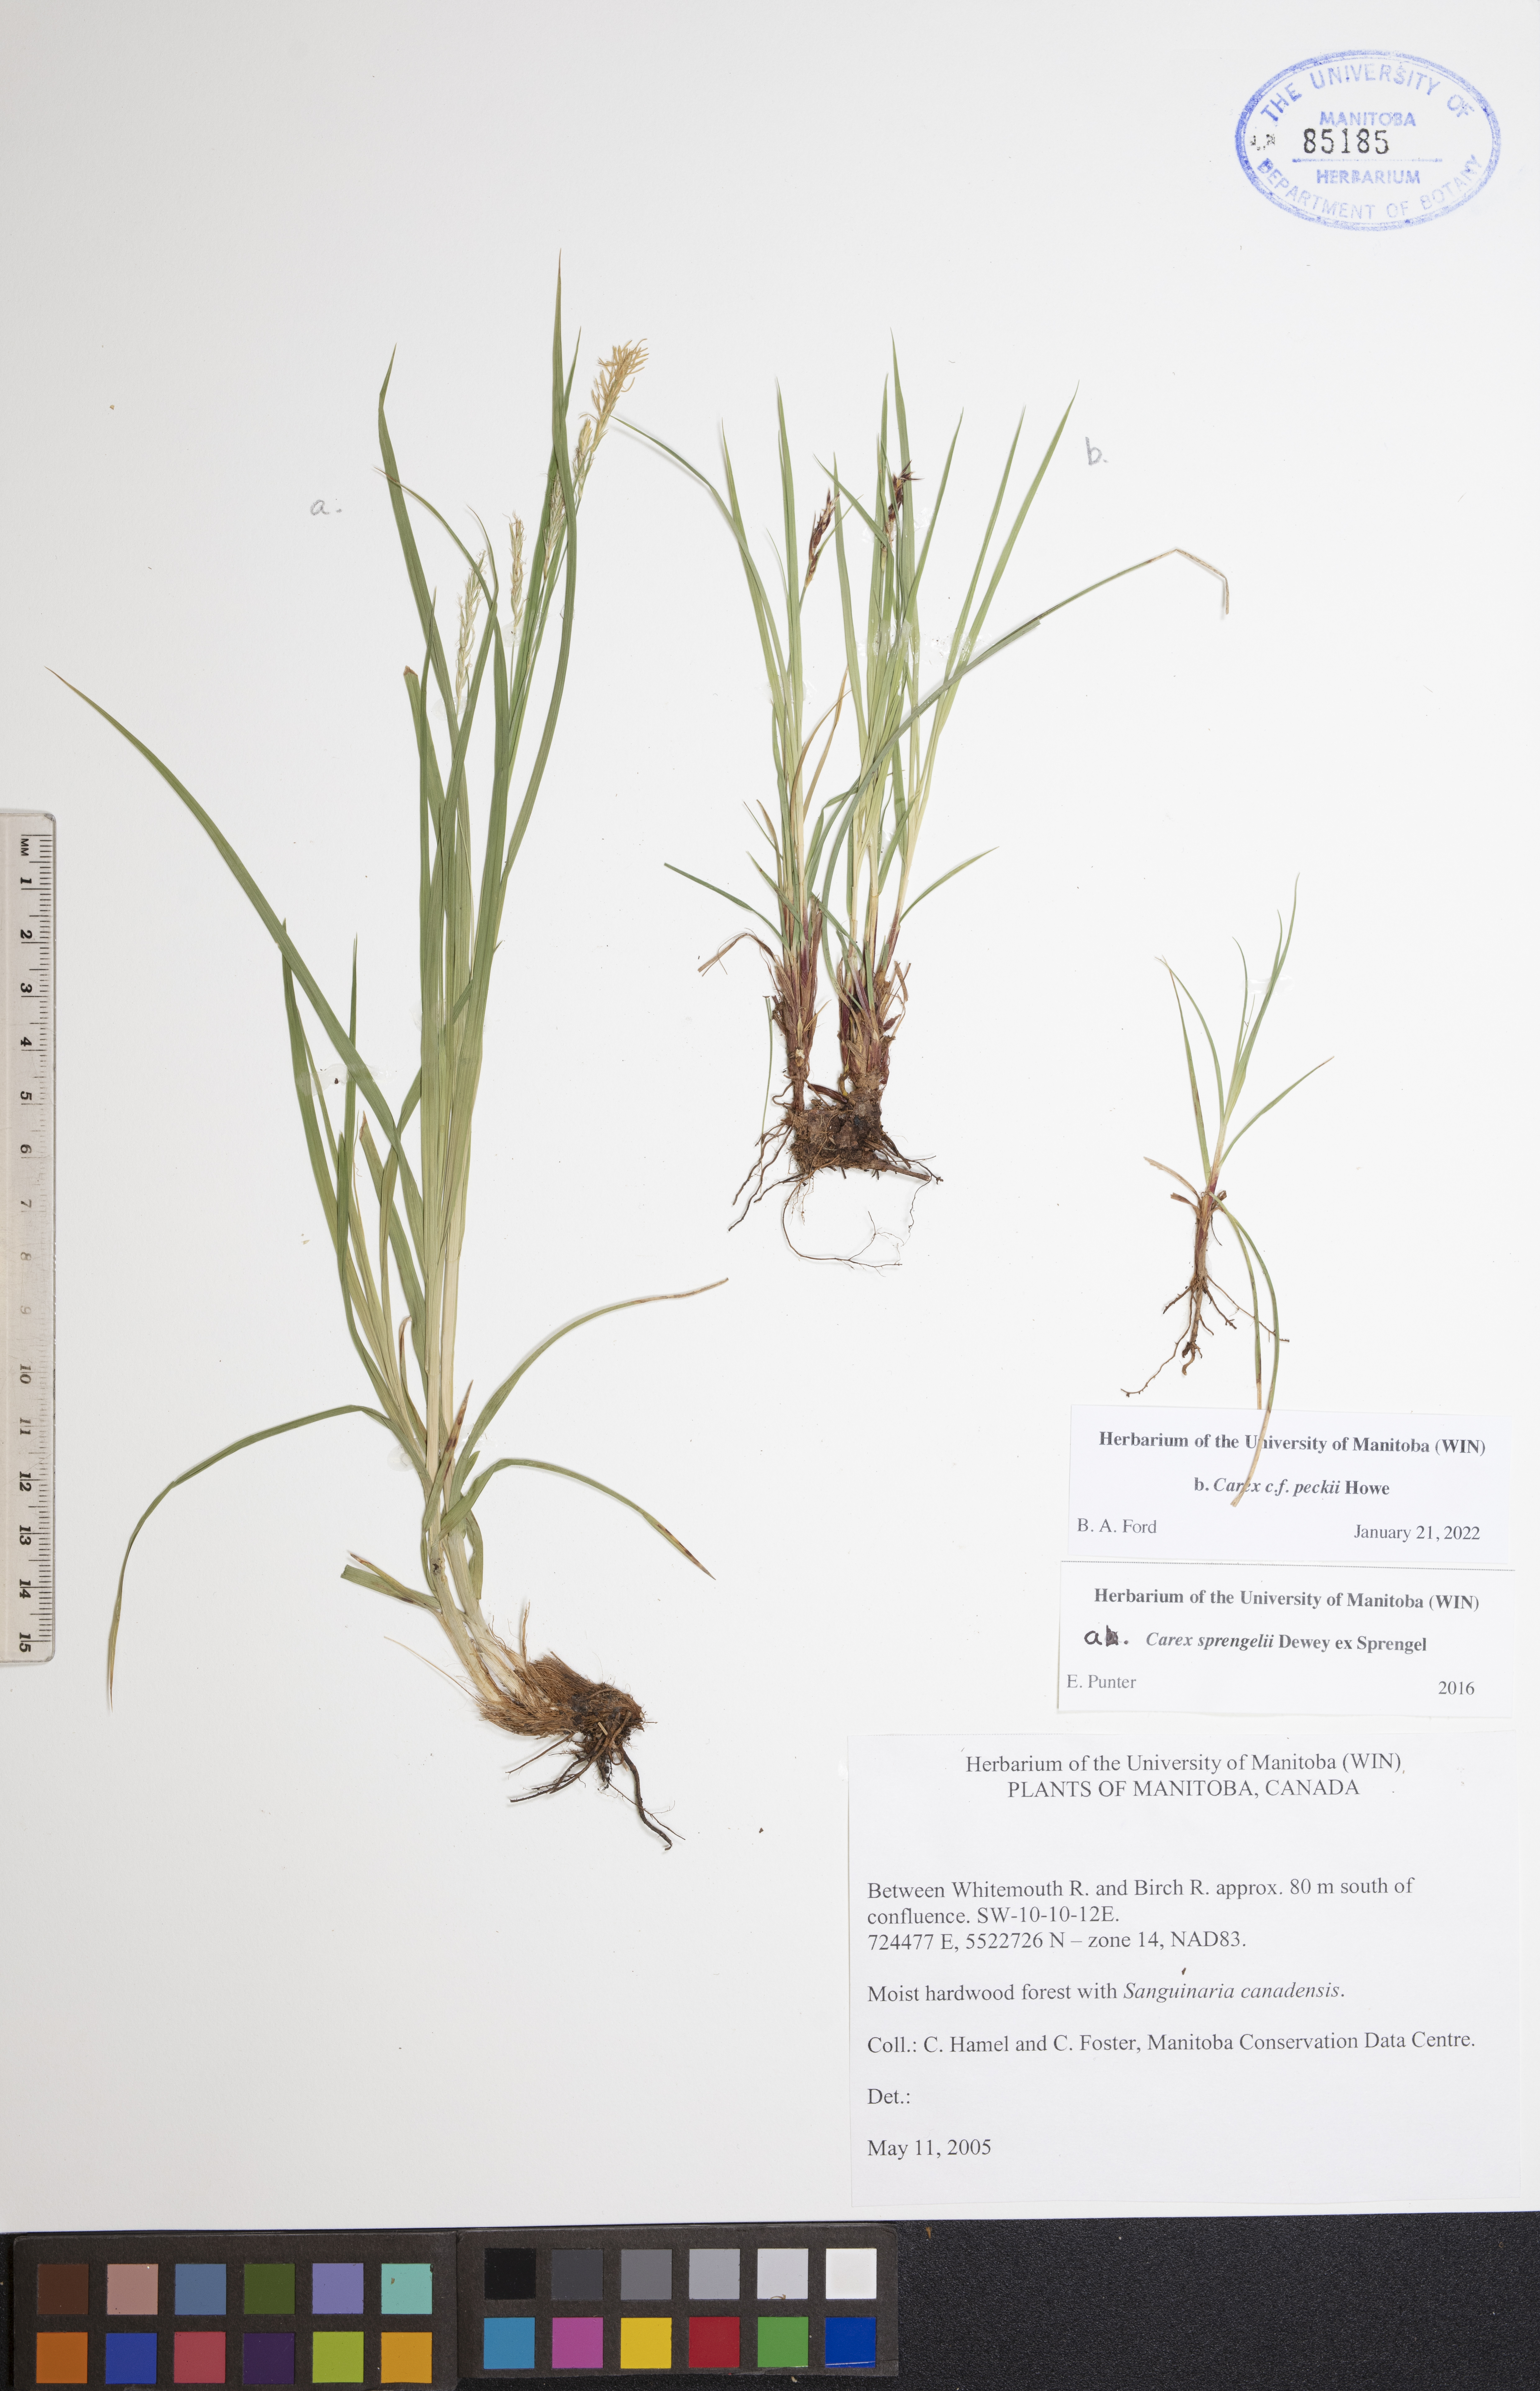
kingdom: Plantae
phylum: Tracheophyta
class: Liliopsida
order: Poales
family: Cyperaceae
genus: Carex
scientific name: Carex peckii
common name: Peck's oak sedge
